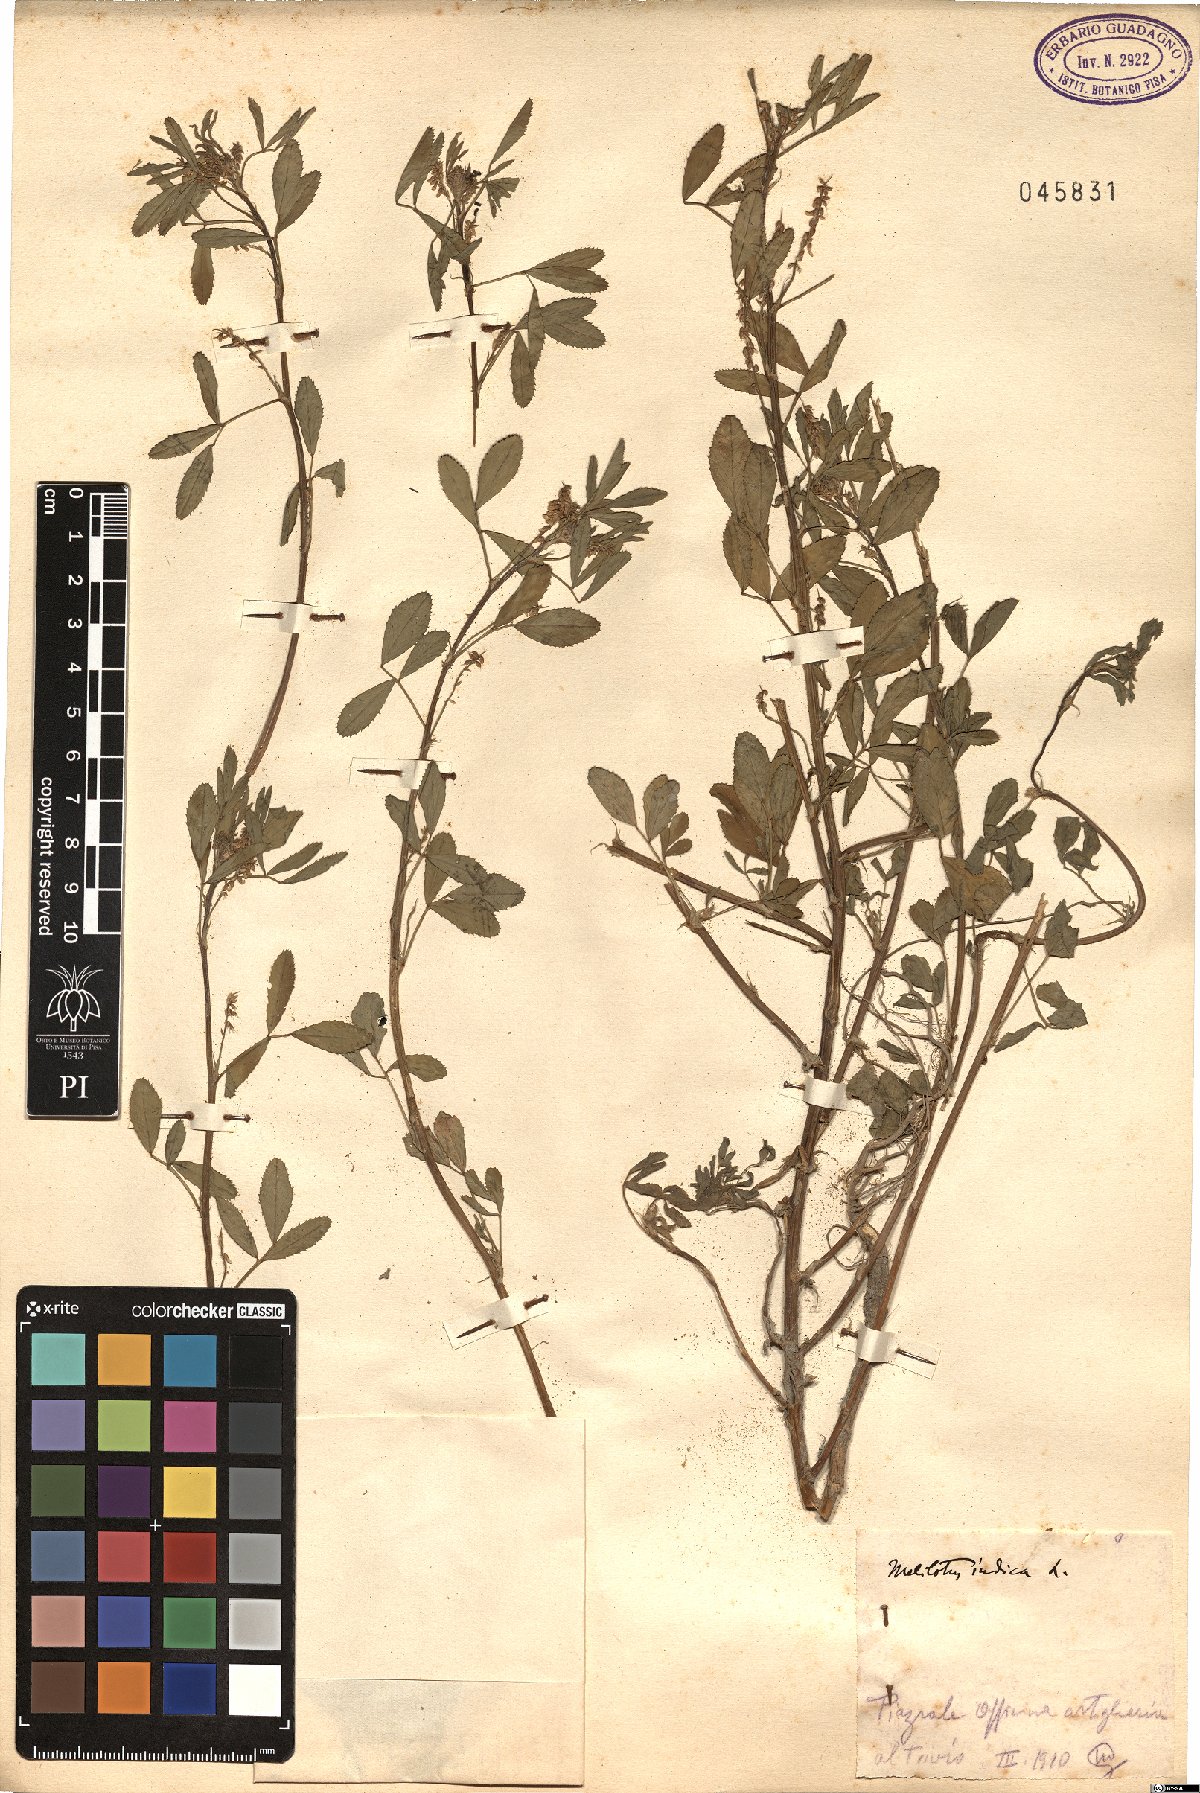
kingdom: Plantae
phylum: Tracheophyta
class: Magnoliopsida
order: Fabales
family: Fabaceae
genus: Melilotus
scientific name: Melilotus indicus
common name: Small melilot
